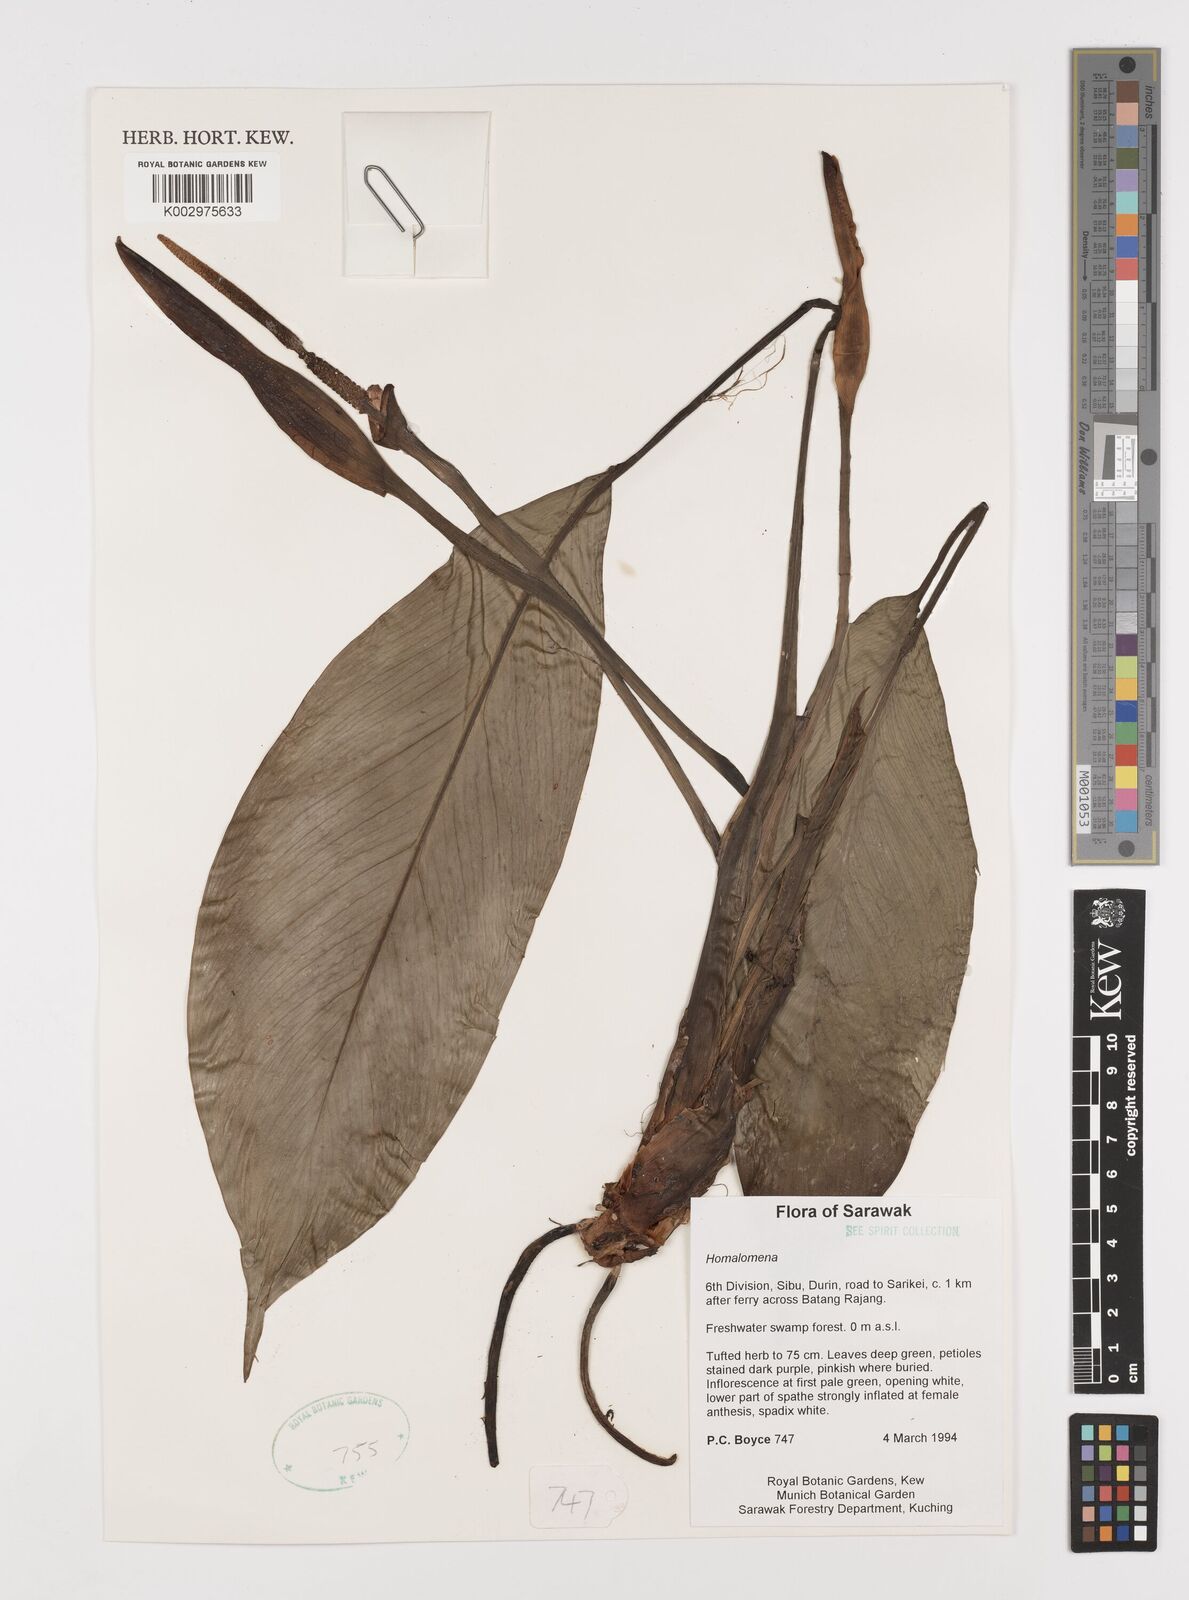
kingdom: Plantae
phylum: Tracheophyta
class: Liliopsida
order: Alismatales
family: Araceae
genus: Homalomena
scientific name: Homalomena
